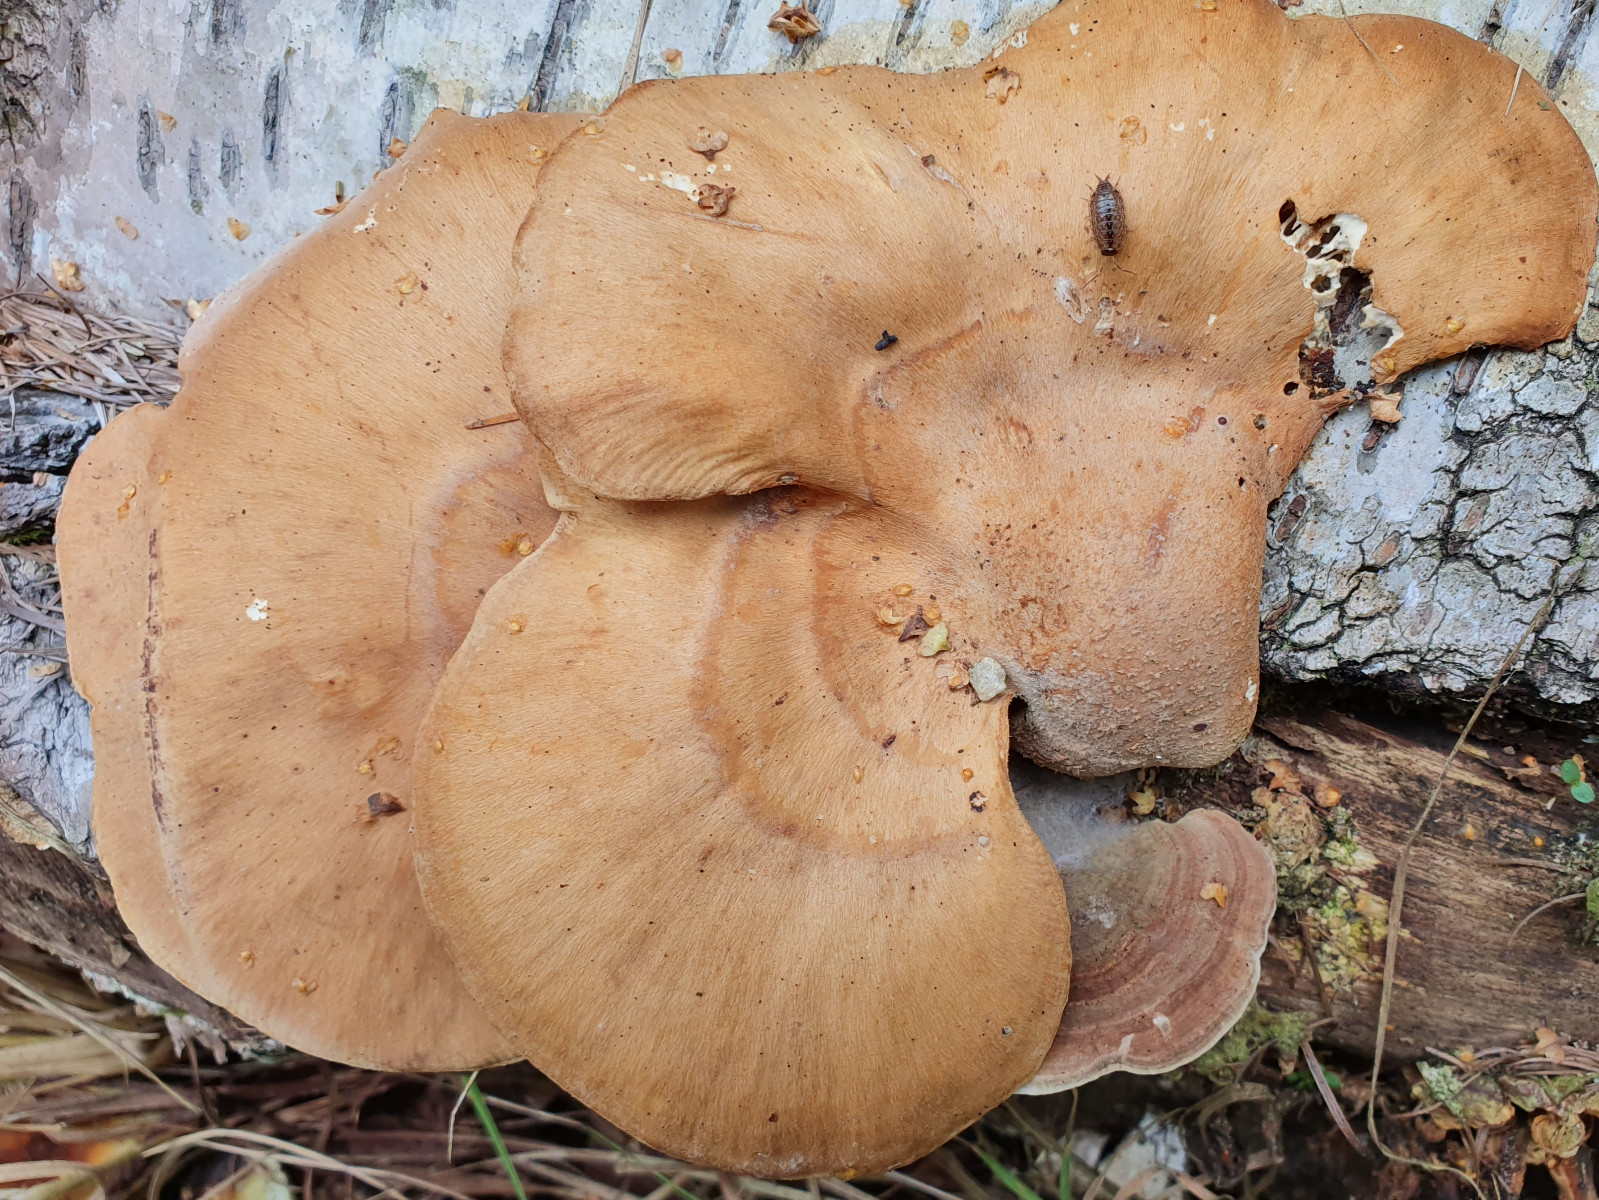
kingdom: Fungi
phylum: Basidiomycota
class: Agaricomycetes
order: Polyporales
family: Panaceae
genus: Panus
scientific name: Panus conchatus
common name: filtstokket læderhat
